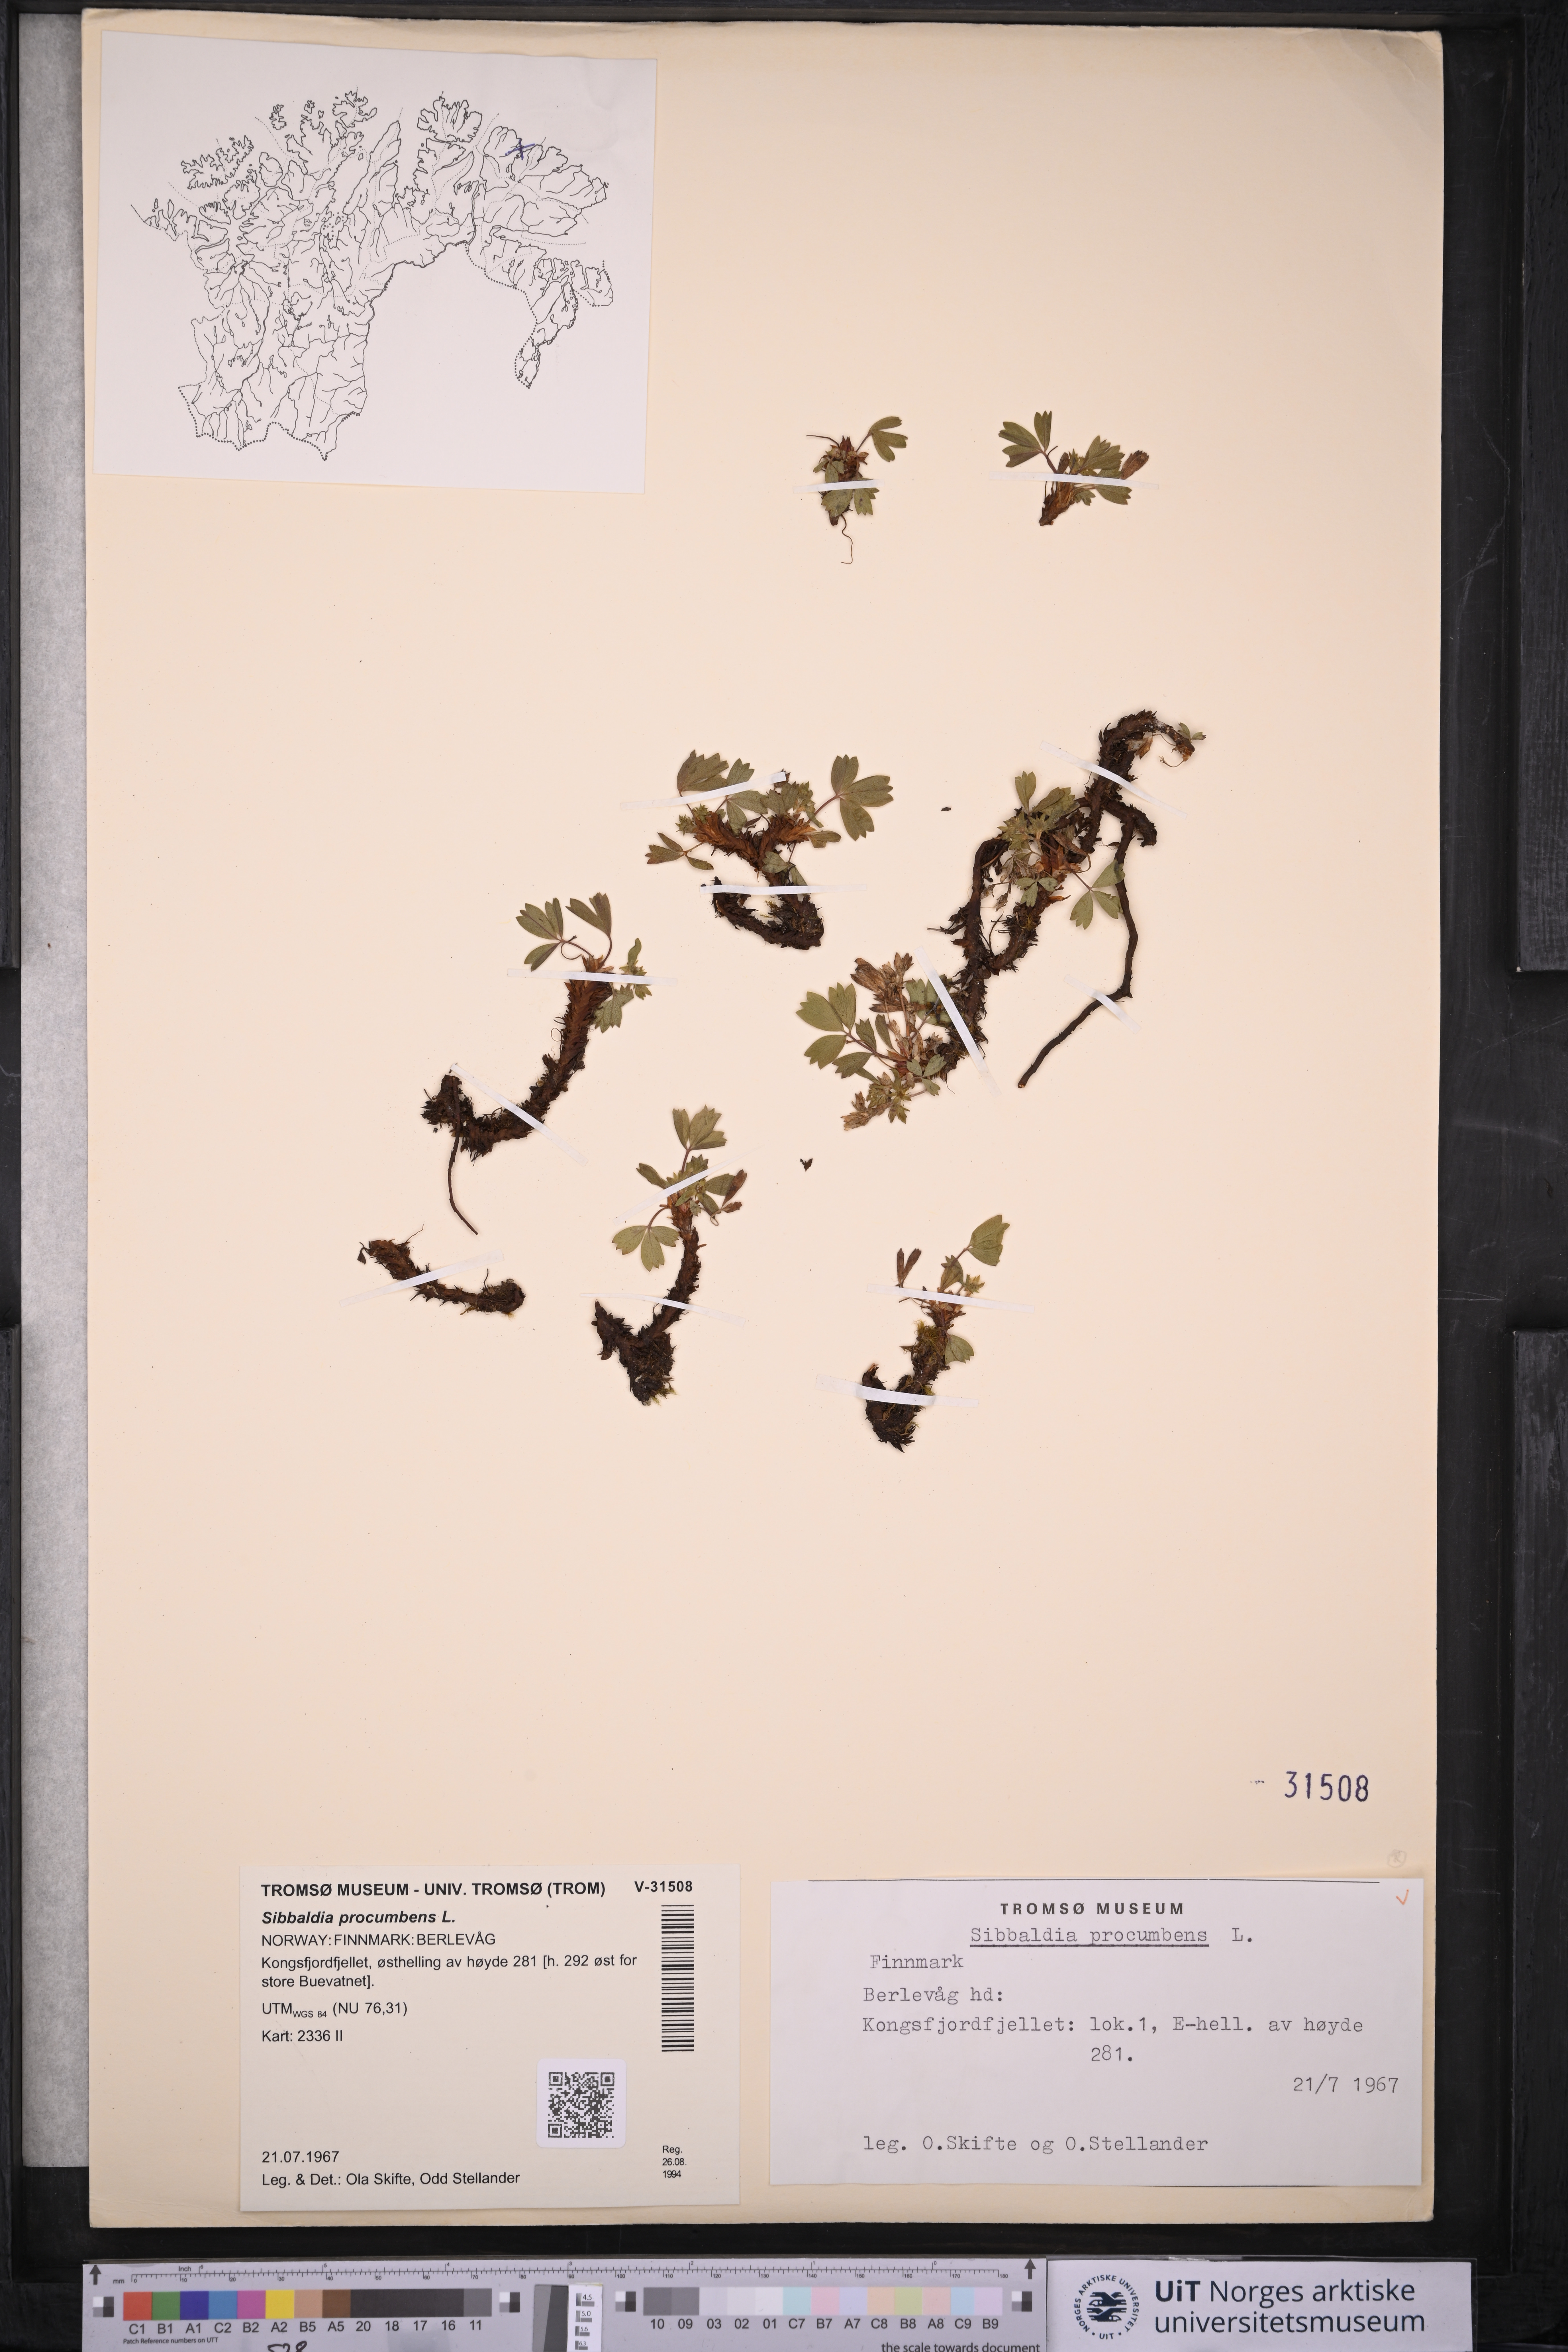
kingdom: Plantae
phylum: Tracheophyta
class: Magnoliopsida
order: Rosales
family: Rosaceae
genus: Sibbaldia
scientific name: Sibbaldia procumbens
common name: Creeping sibbaldia
